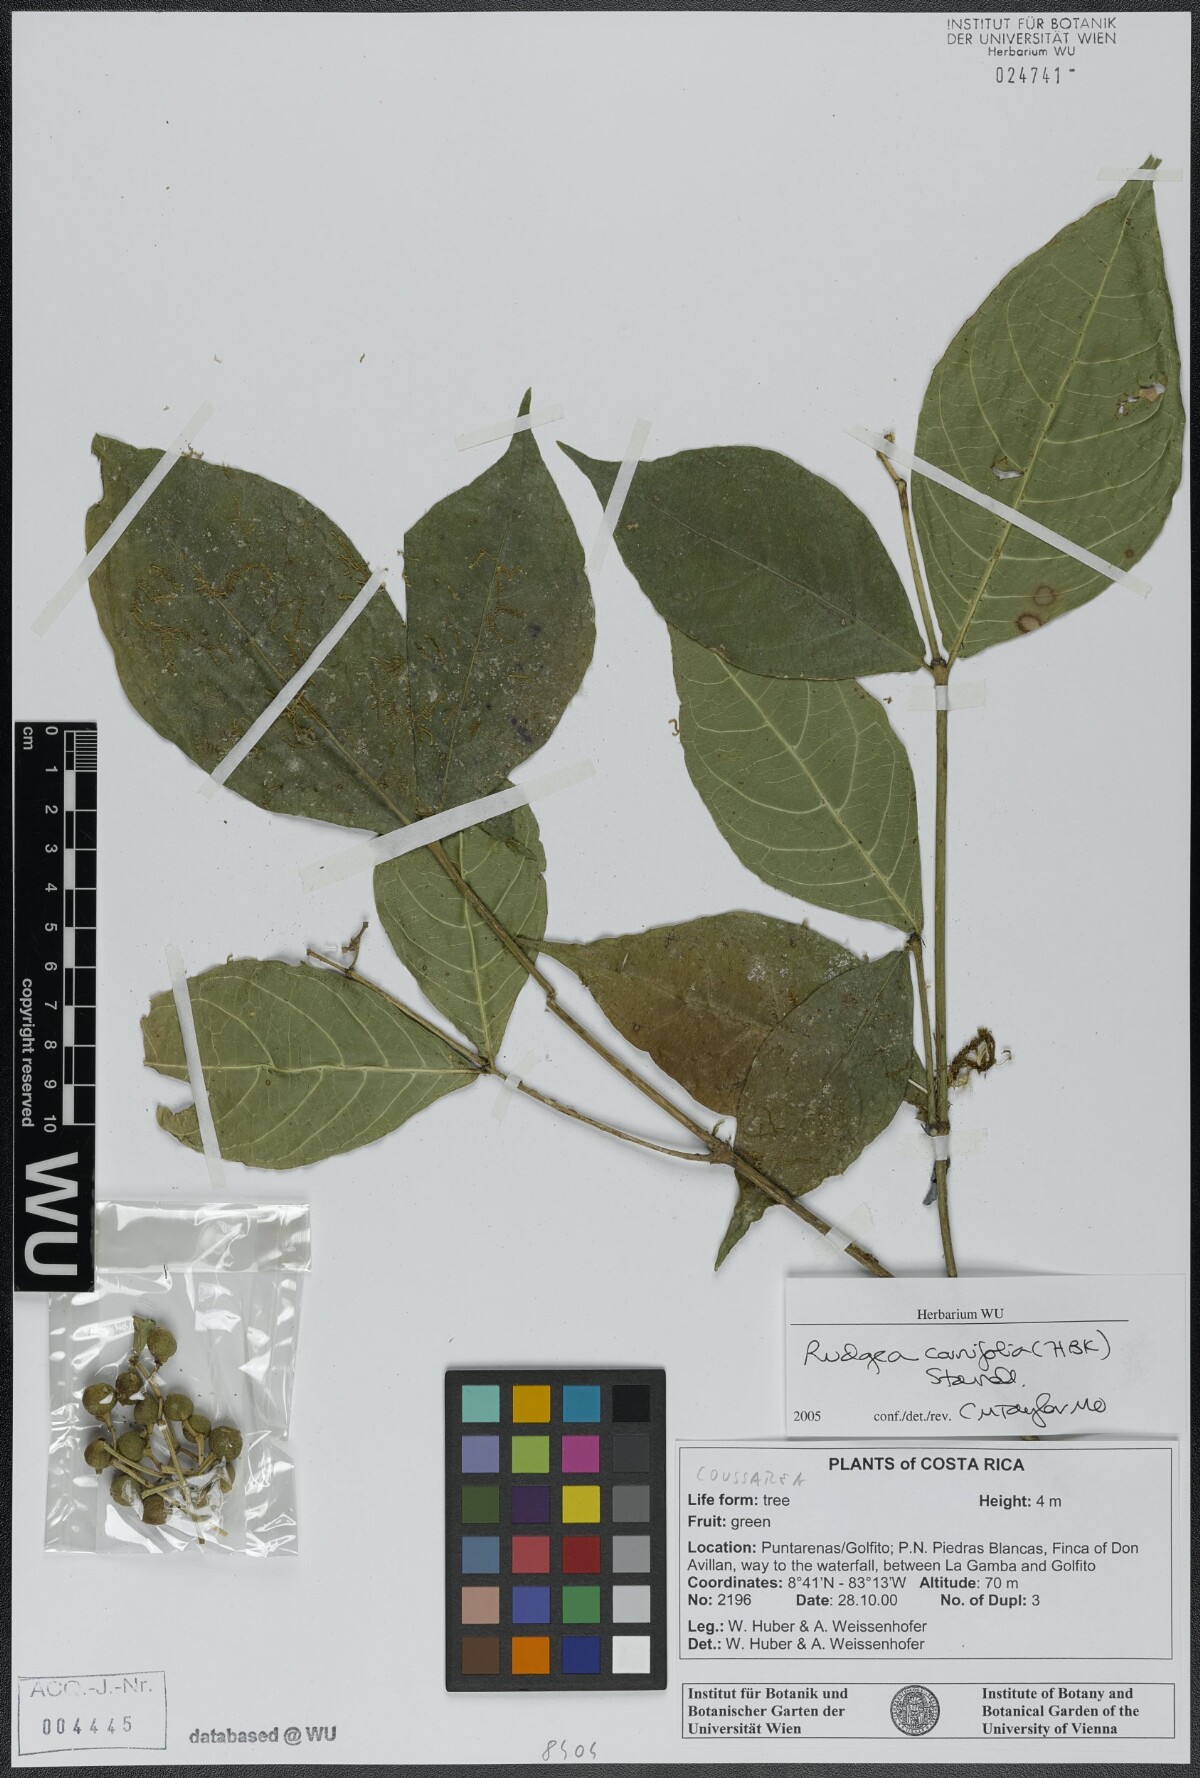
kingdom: Plantae
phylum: Tracheophyta
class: Magnoliopsida
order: Gentianales
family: Rubiaceae
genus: Rudgea
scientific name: Rudgea cornifolia
